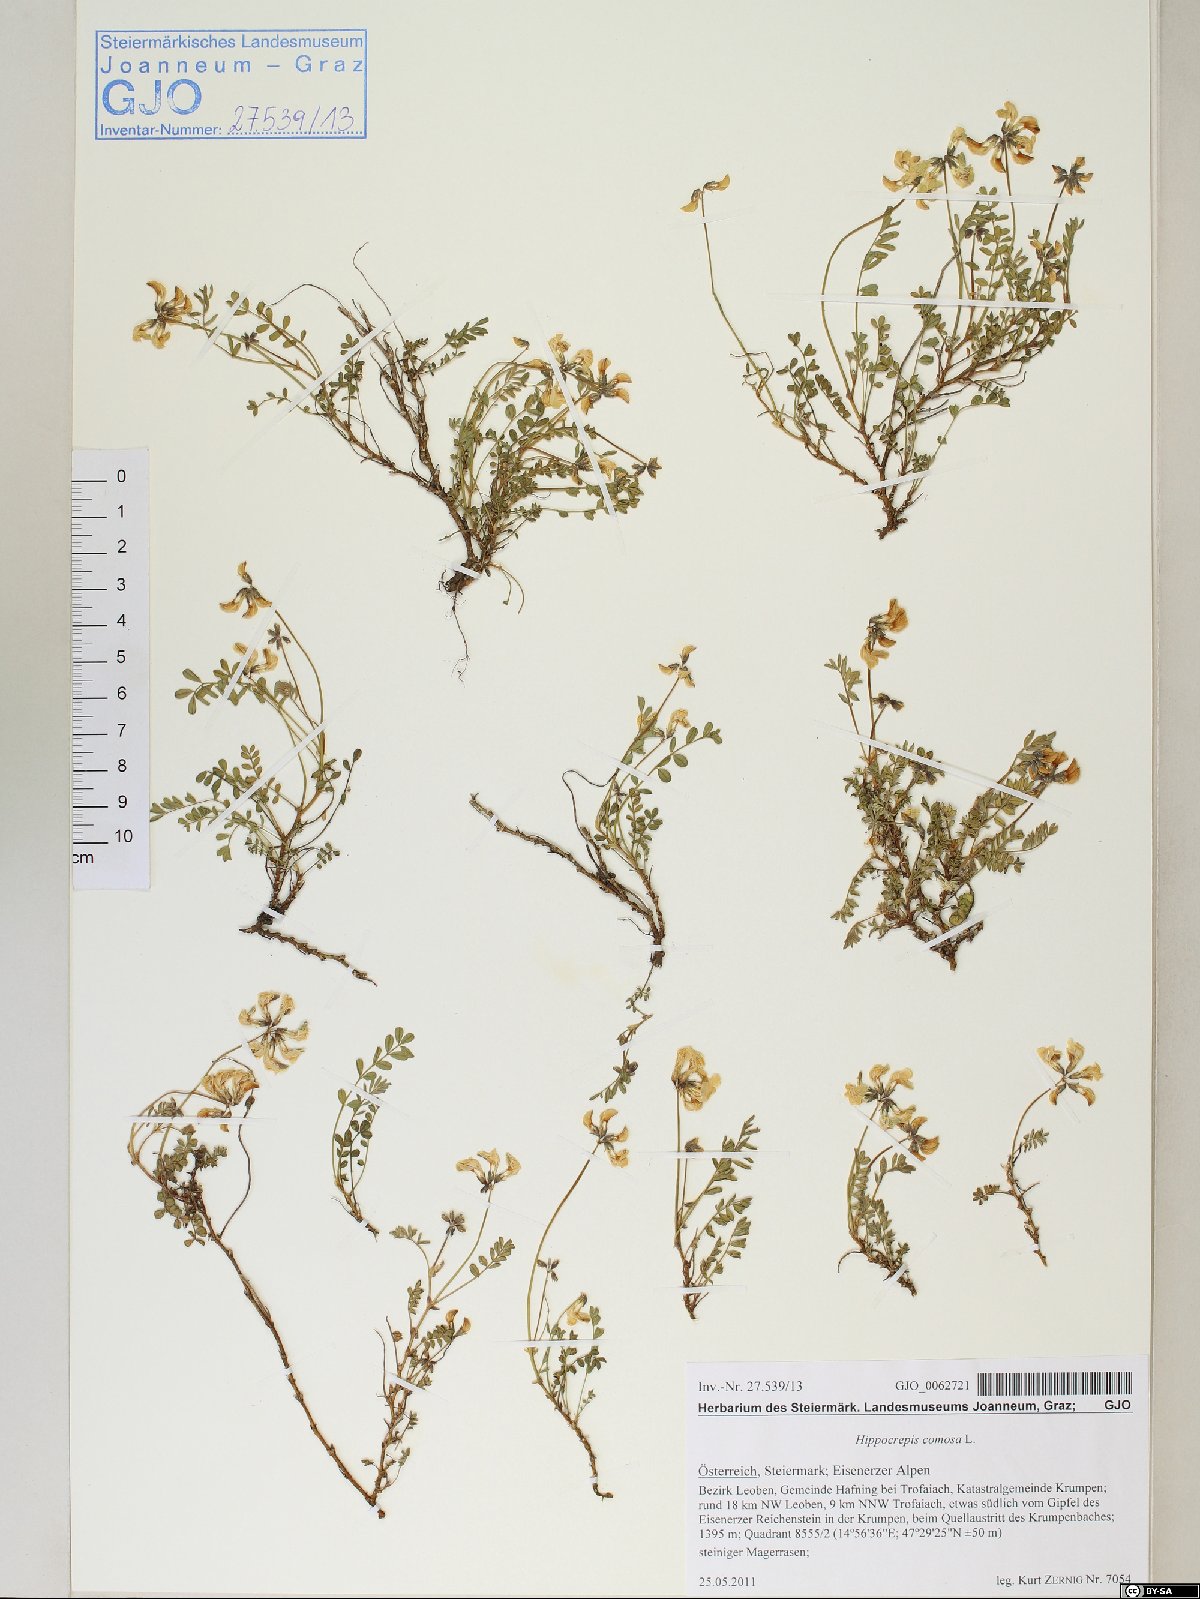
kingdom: Plantae
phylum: Tracheophyta
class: Magnoliopsida
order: Fabales
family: Fabaceae
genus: Hippocrepis
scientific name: Hippocrepis comosa
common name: Horseshoe vetch
